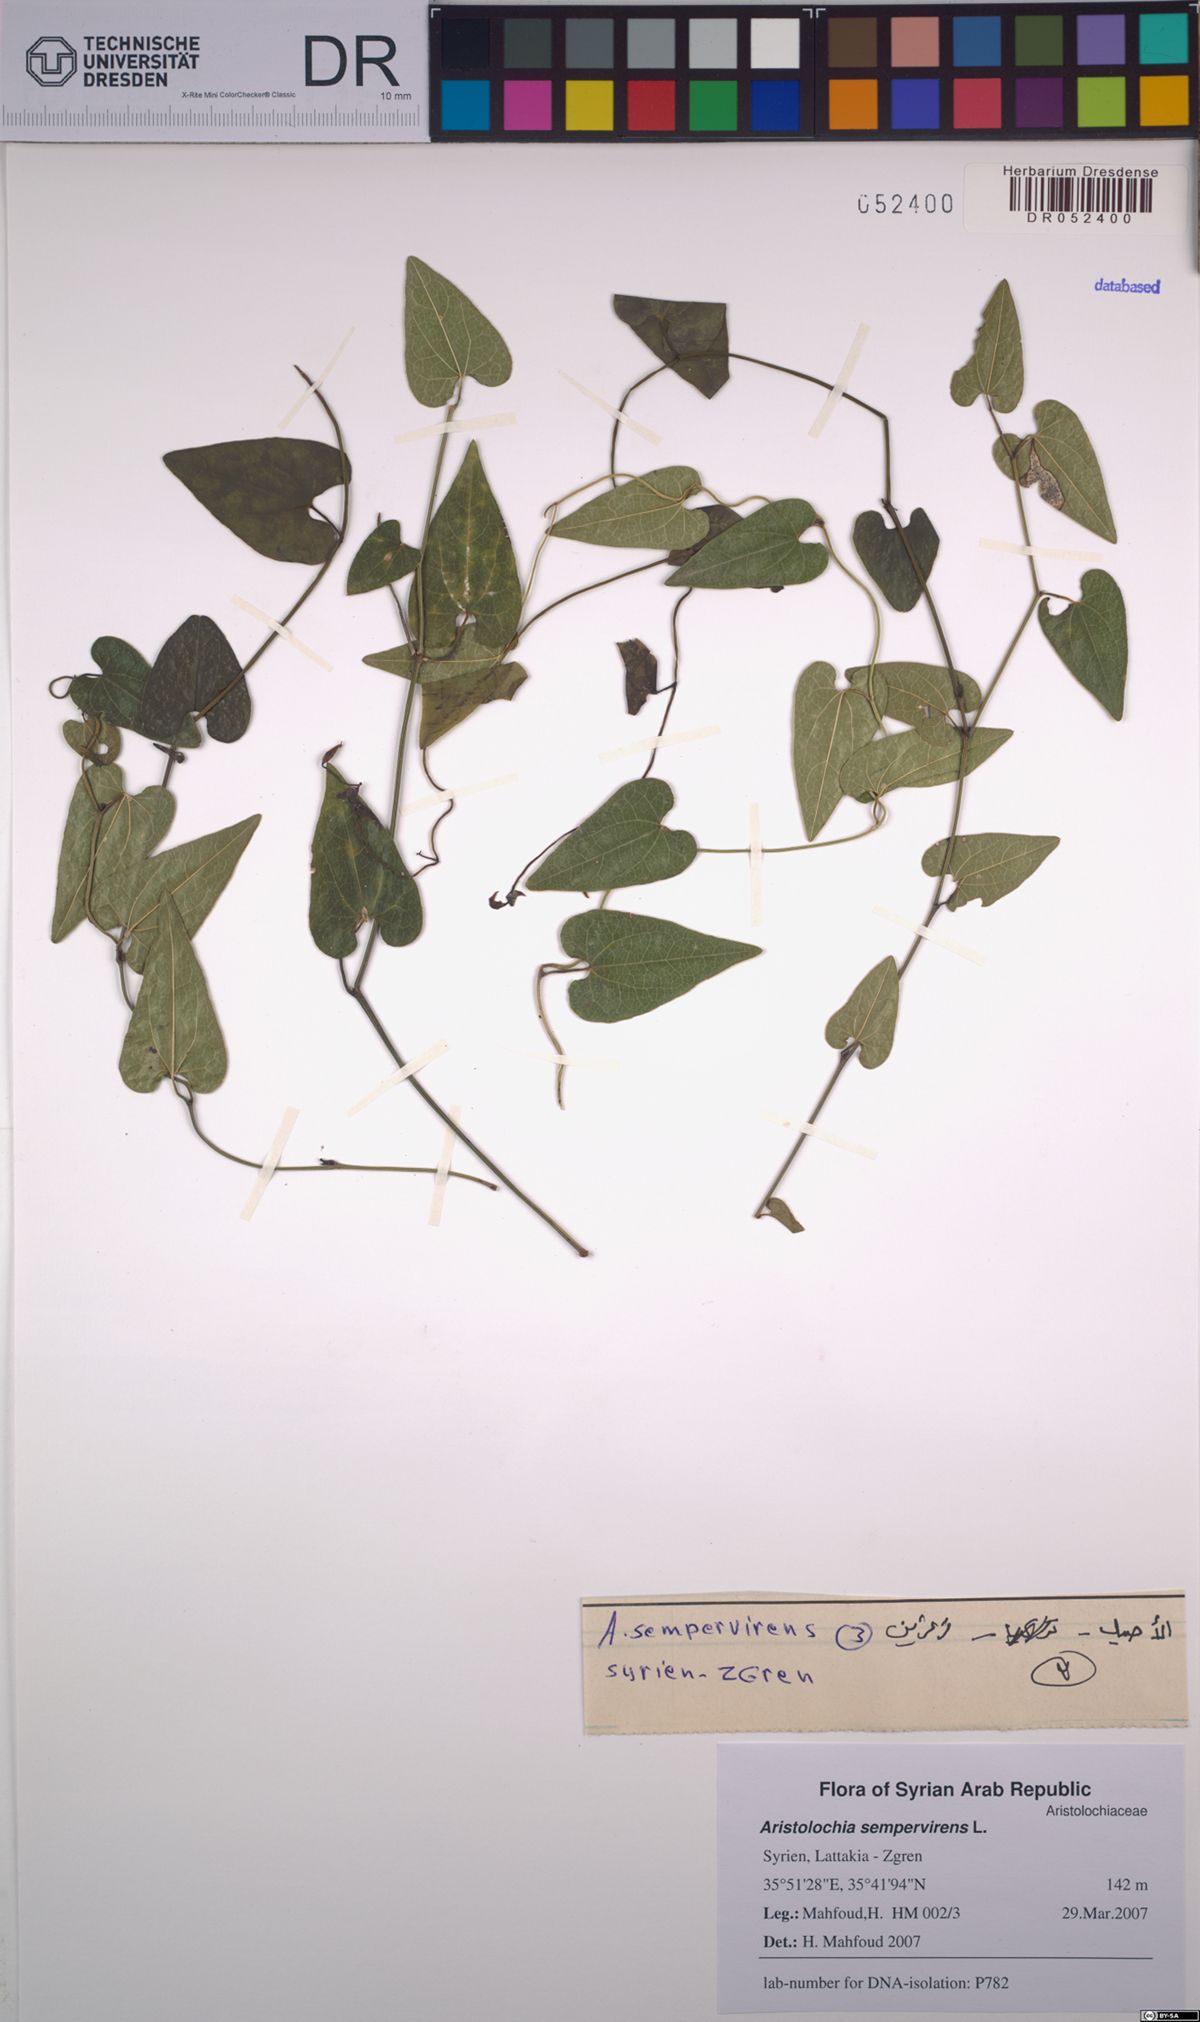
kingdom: Plantae
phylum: Tracheophyta
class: Magnoliopsida
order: Piperales
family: Aristolochiaceae
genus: Aristolochia
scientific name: Aristolochia sempervirens
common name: Long birthwort
